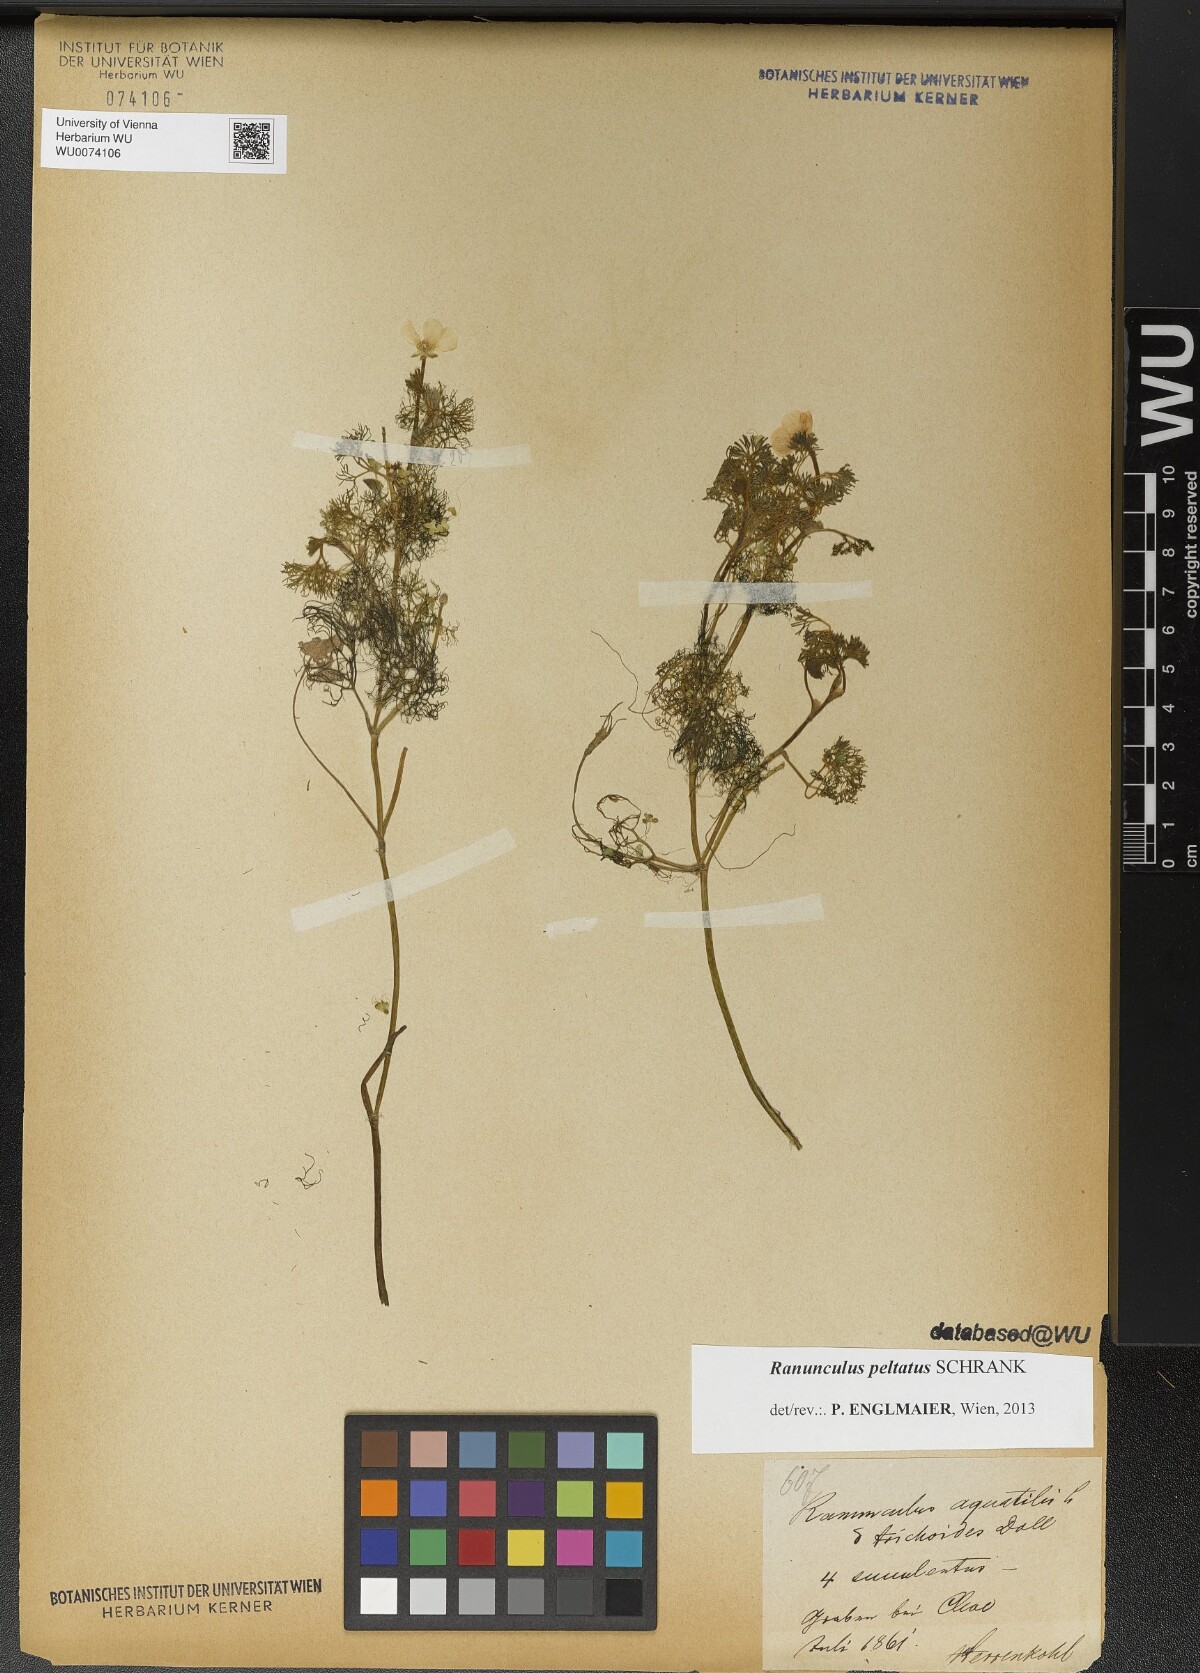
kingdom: Plantae
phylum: Tracheophyta
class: Magnoliopsida
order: Ranunculales
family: Ranunculaceae
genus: Ranunculus
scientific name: Ranunculus peltatus
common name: Pond water-crowfoot
